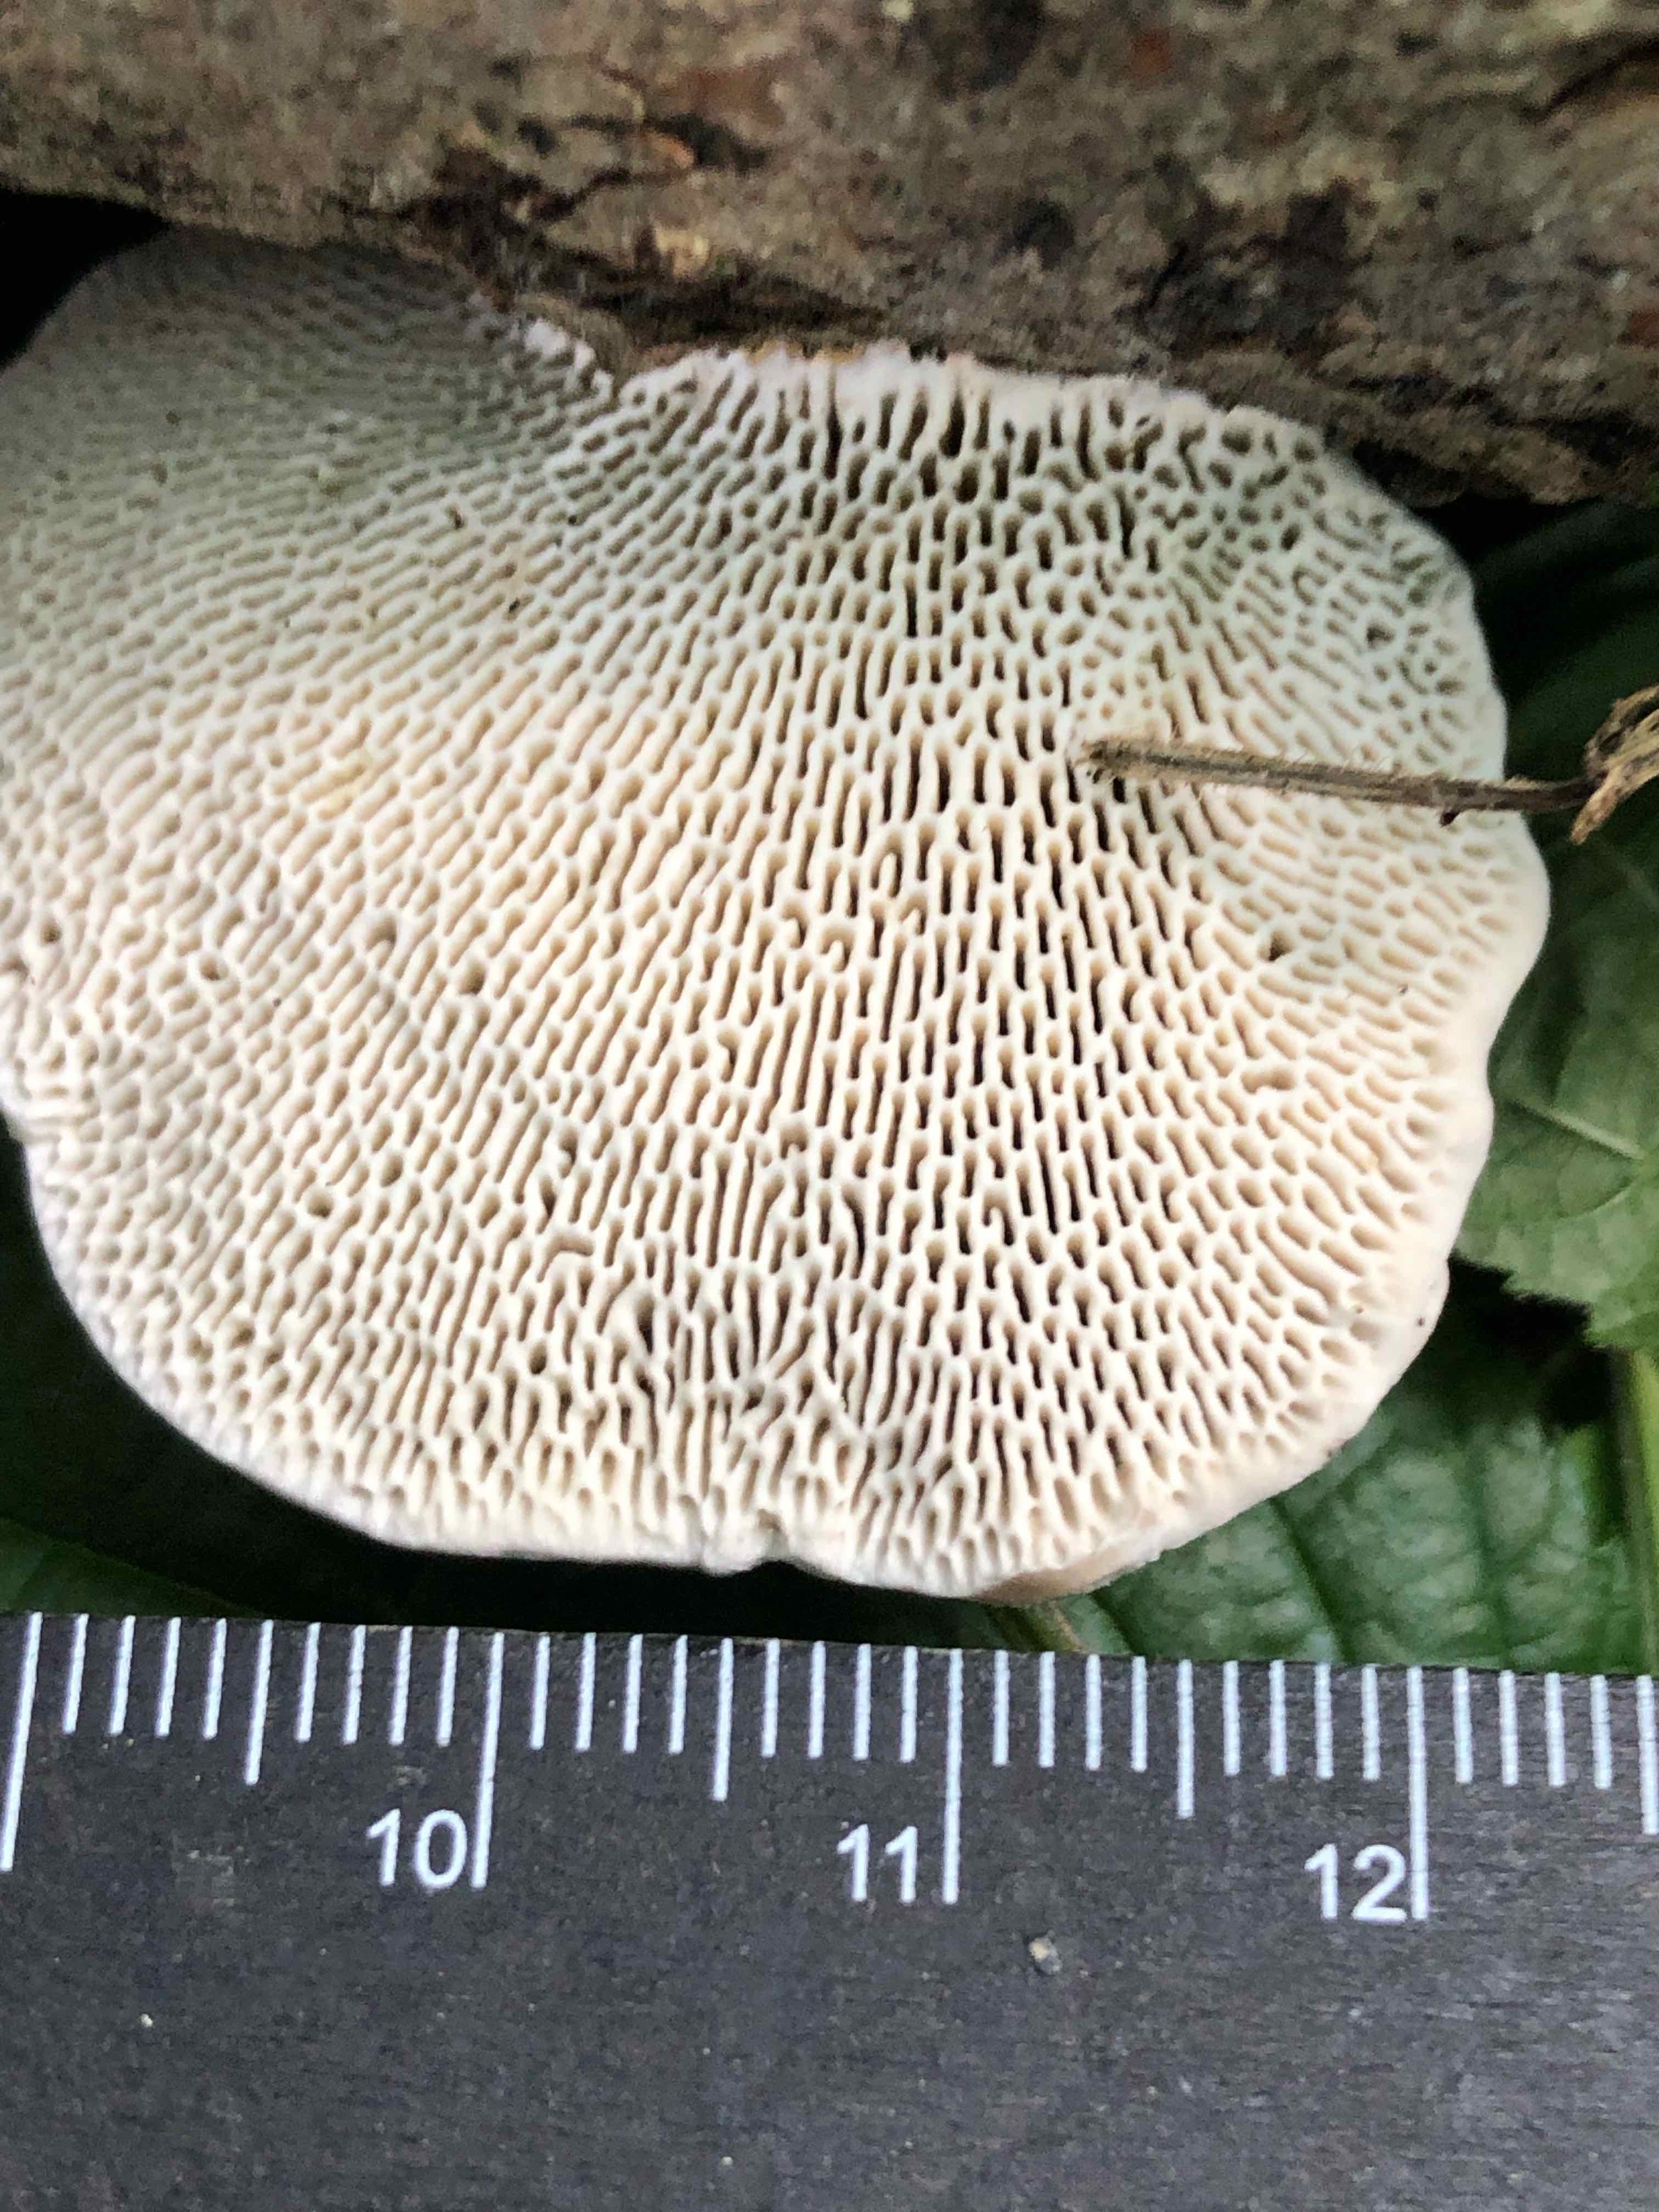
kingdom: Fungi
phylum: Basidiomycota
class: Agaricomycetes
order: Polyporales
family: Polyporaceae
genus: Daedaleopsis
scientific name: Daedaleopsis confragosa
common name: rødmende læderporesvamp
